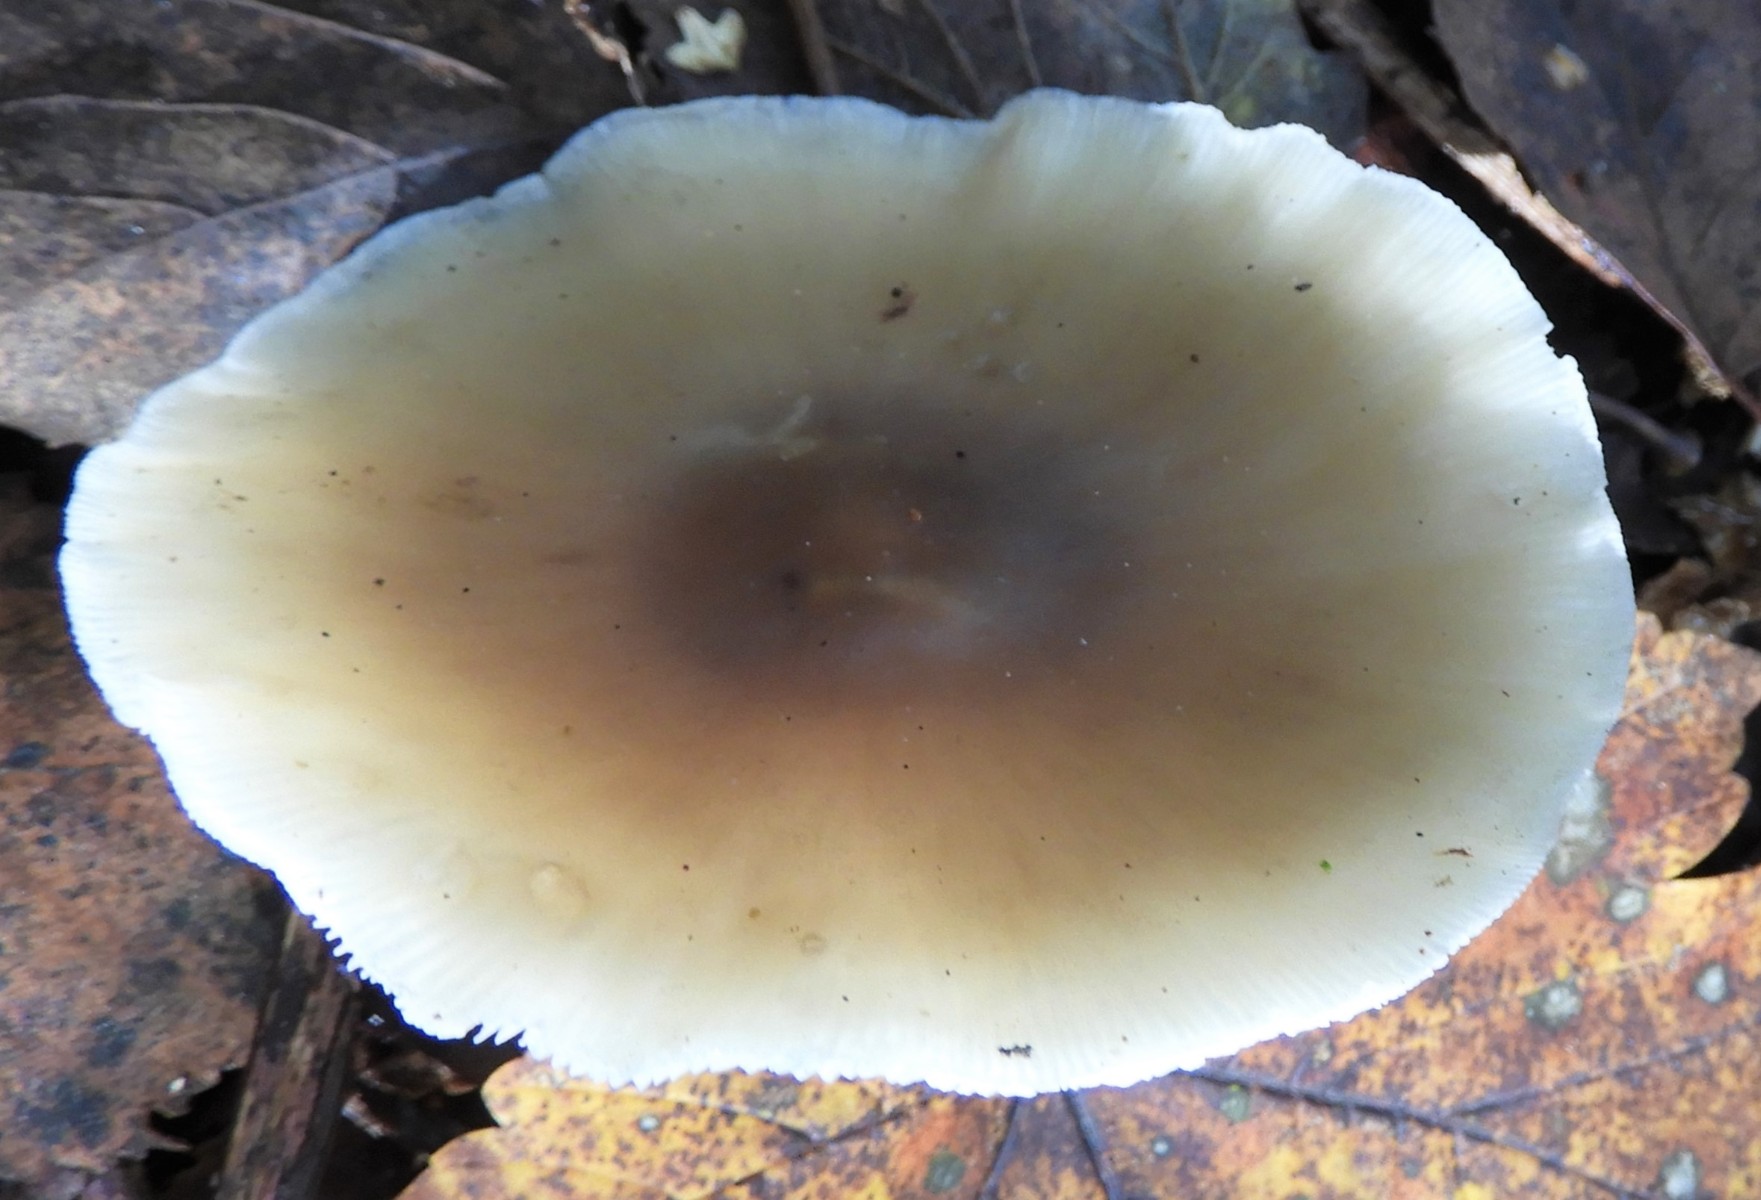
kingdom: Fungi
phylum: Basidiomycota
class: Agaricomycetes
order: Agaricales
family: Omphalotaceae
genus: Rhodocollybia
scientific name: Rhodocollybia asema
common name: horngrå fladhat
